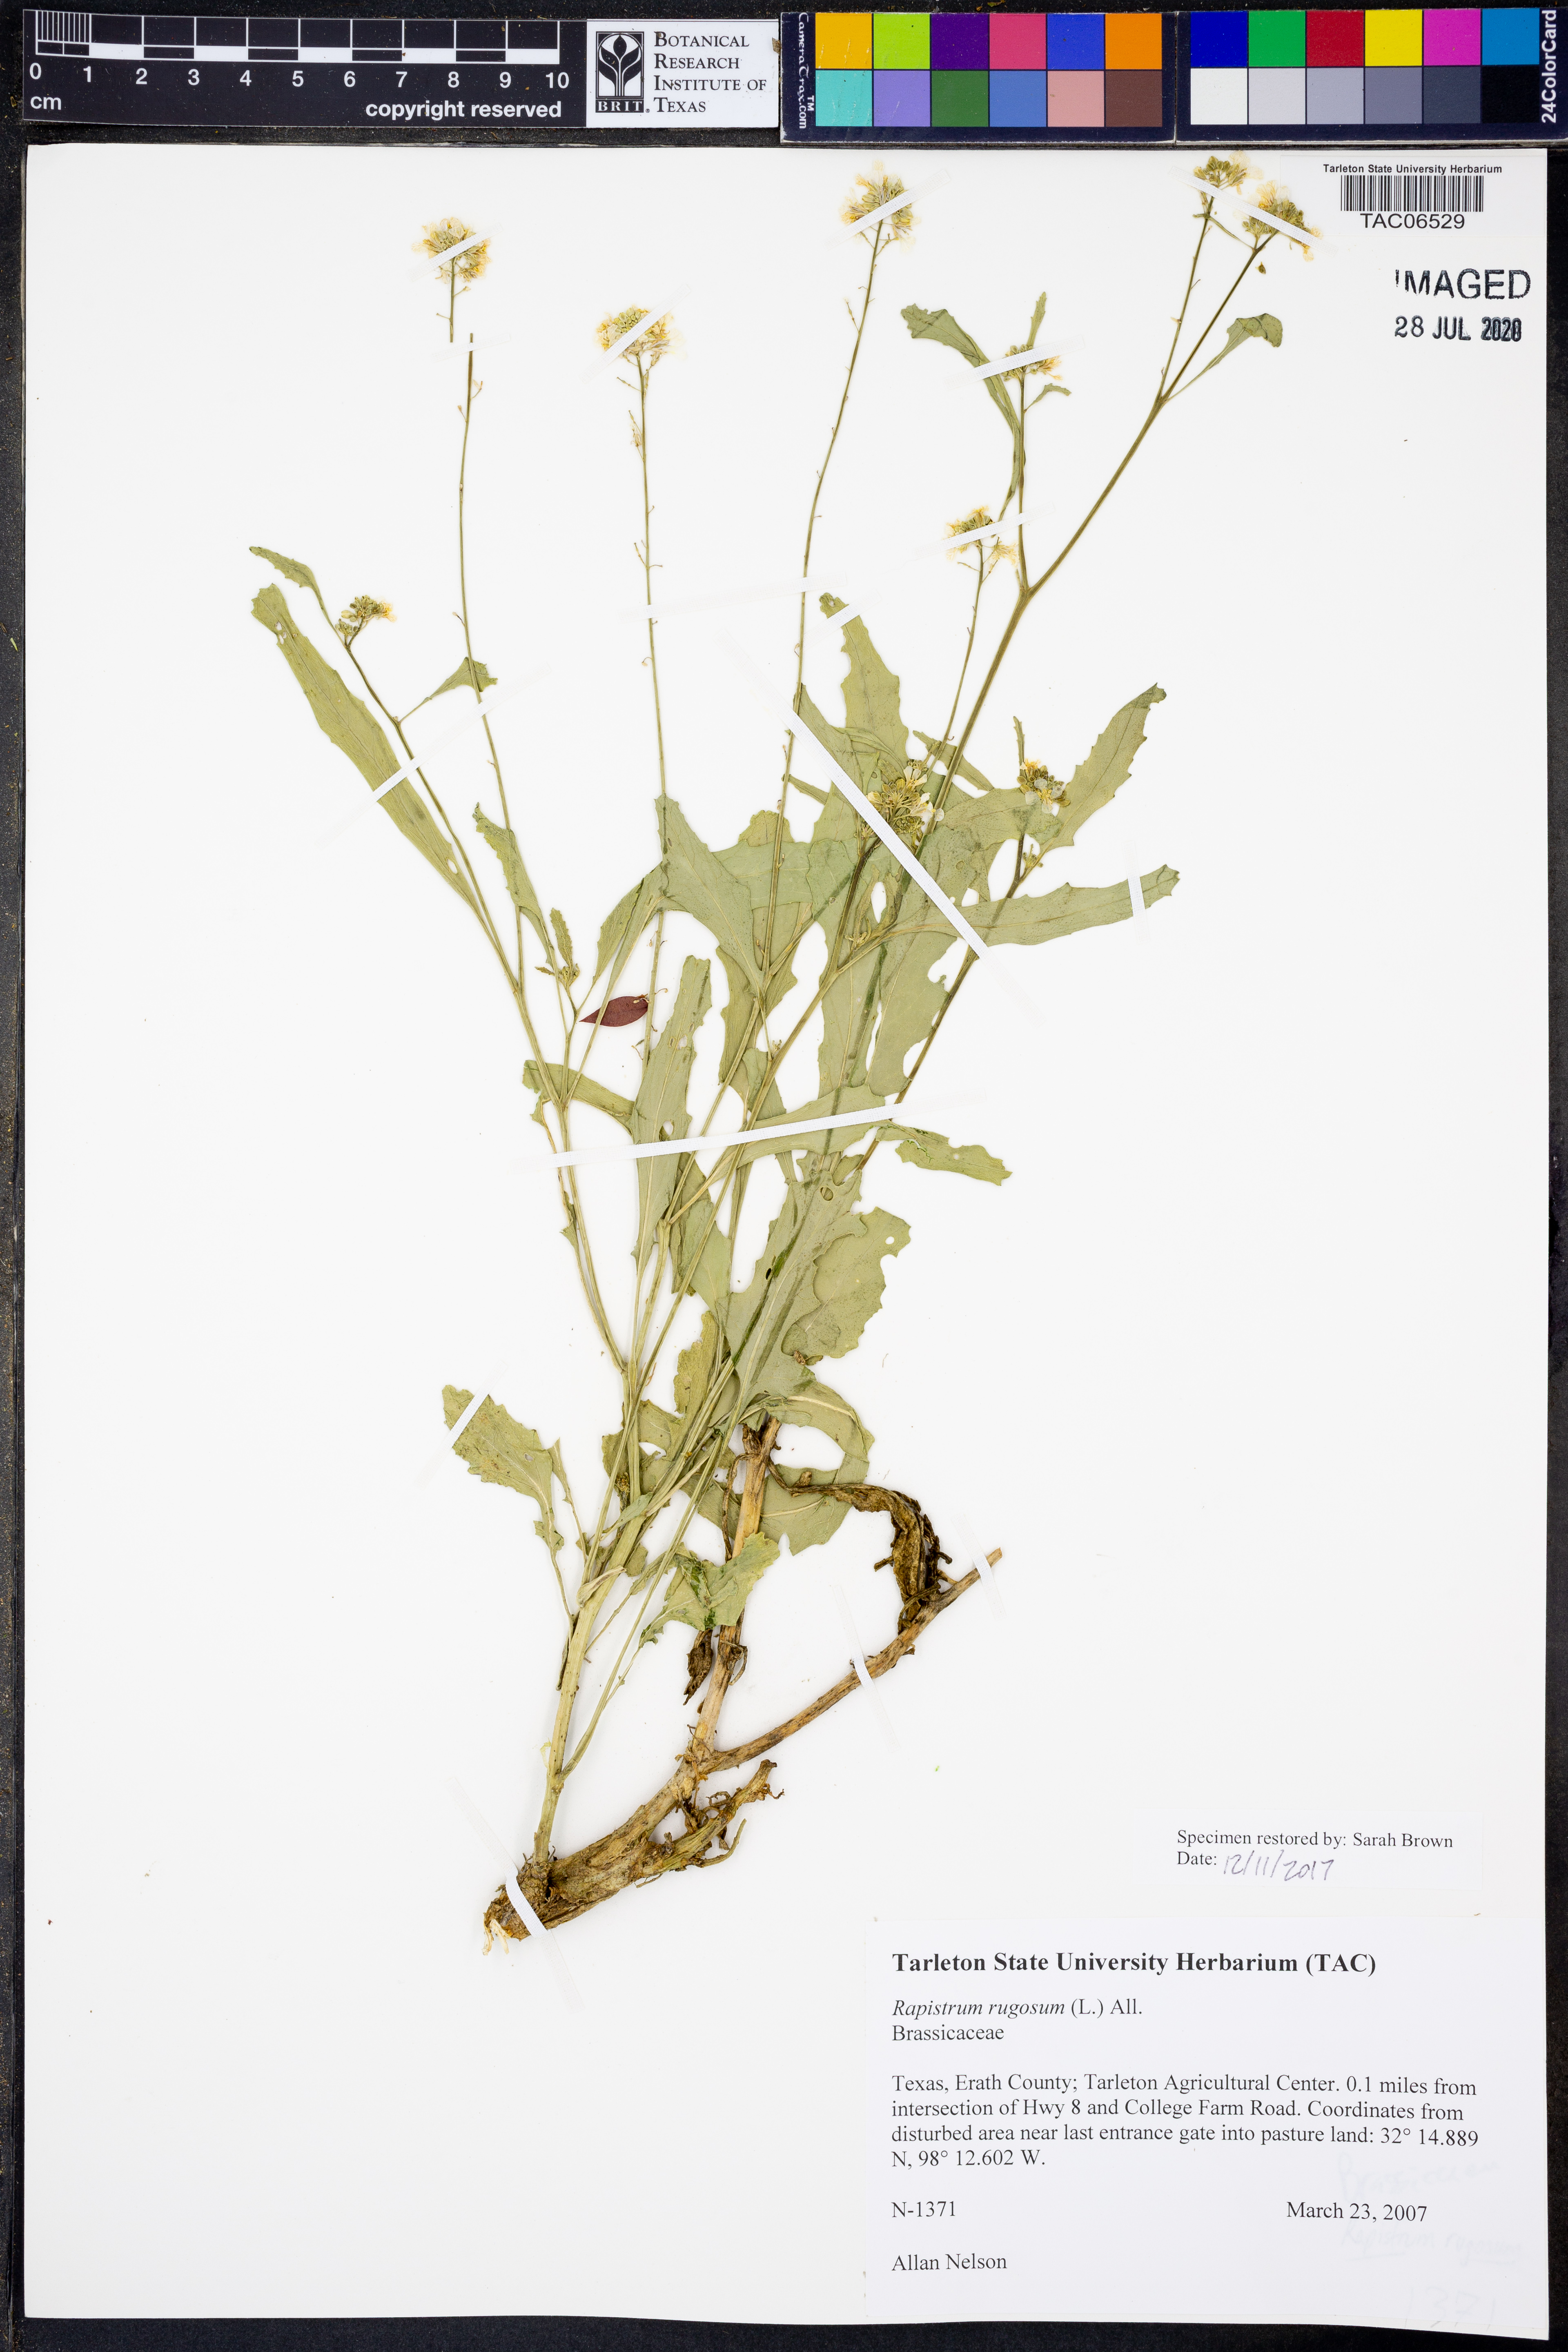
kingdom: Plantae
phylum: Tracheophyta
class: Magnoliopsida
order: Brassicales
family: Brassicaceae
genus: Rapistrum
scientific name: Rapistrum rugosum
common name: Annual bastardcabbage
